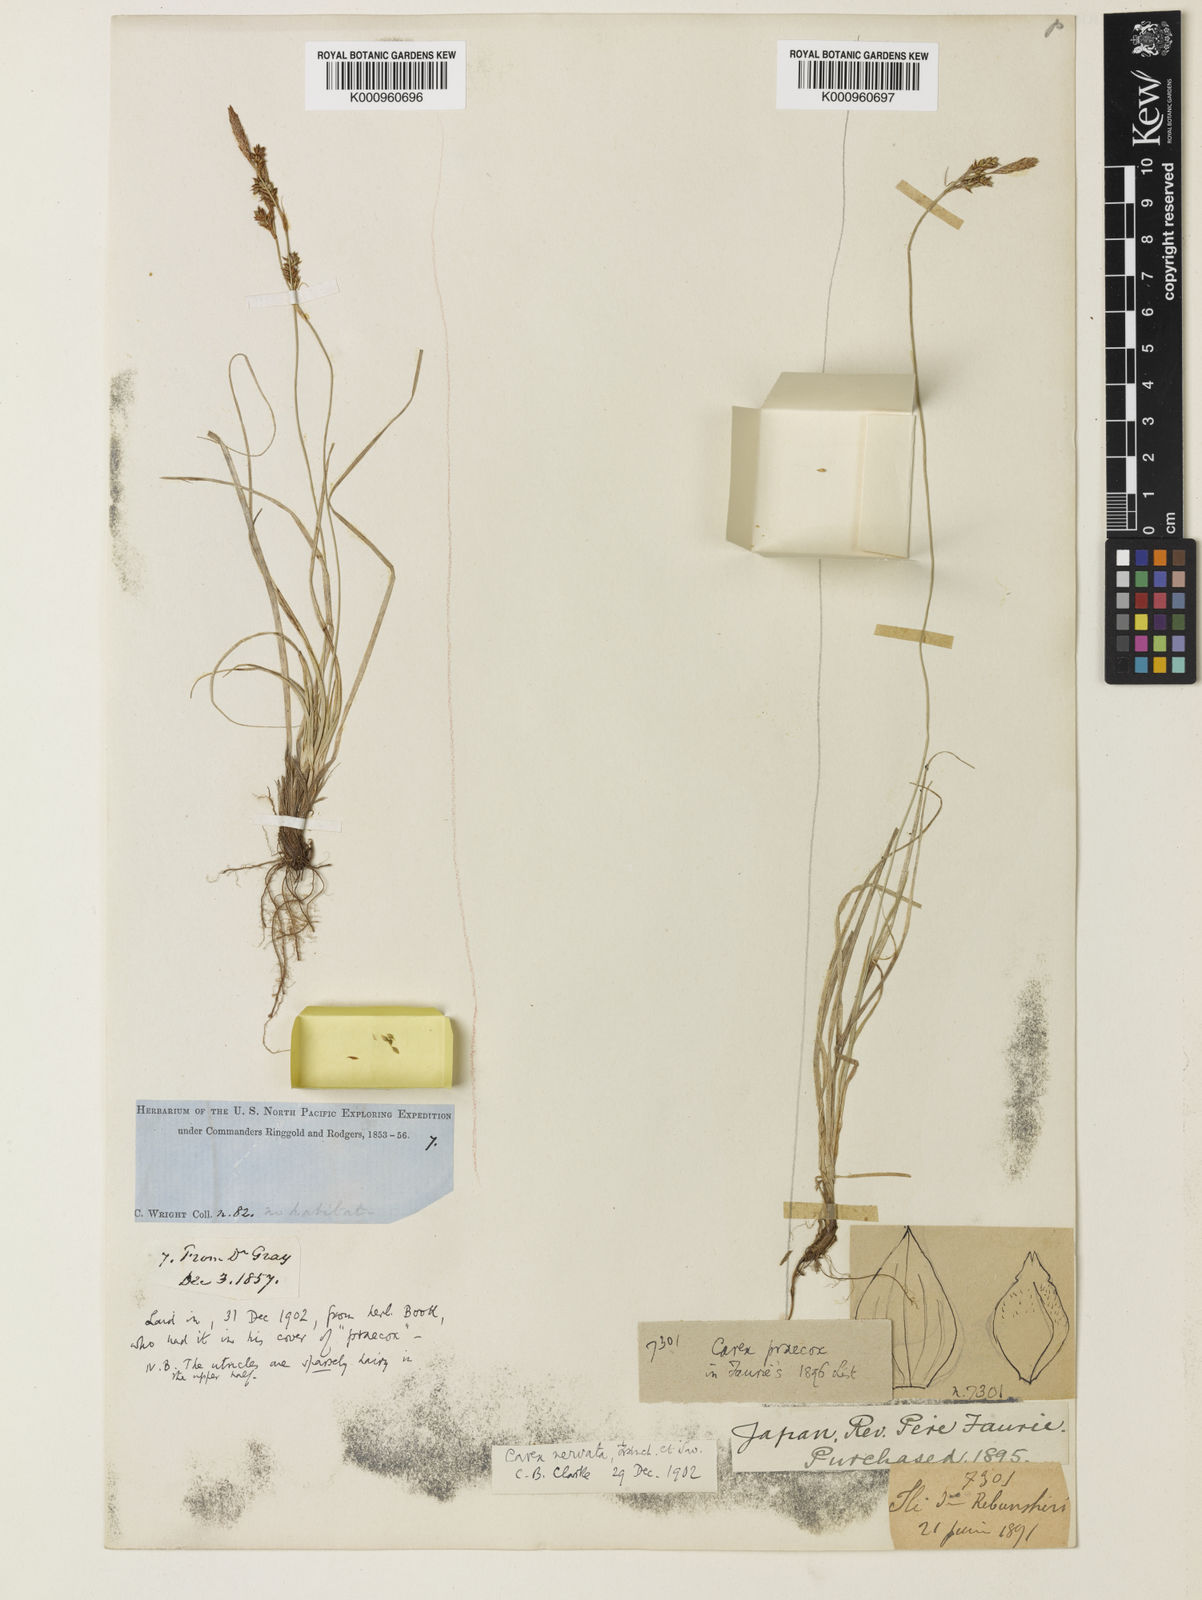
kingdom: Plantae
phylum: Tracheophyta
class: Liliopsida
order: Poales
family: Cyperaceae
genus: Carex
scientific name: Carex caryophyllea
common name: Spring sedge
